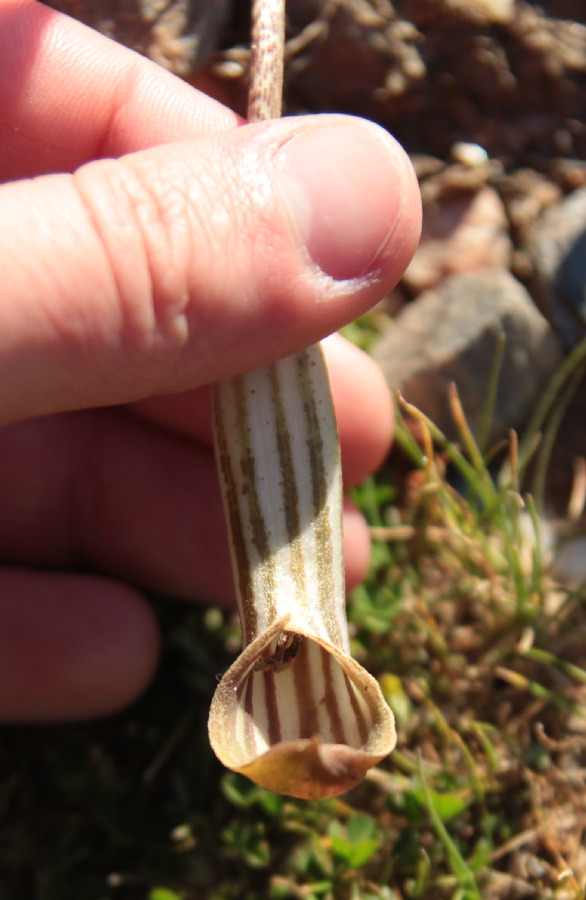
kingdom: Plantae
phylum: Tracheophyta
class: Liliopsida
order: Alismatales
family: Araceae
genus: Arisarum
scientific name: Arisarum vulgare
